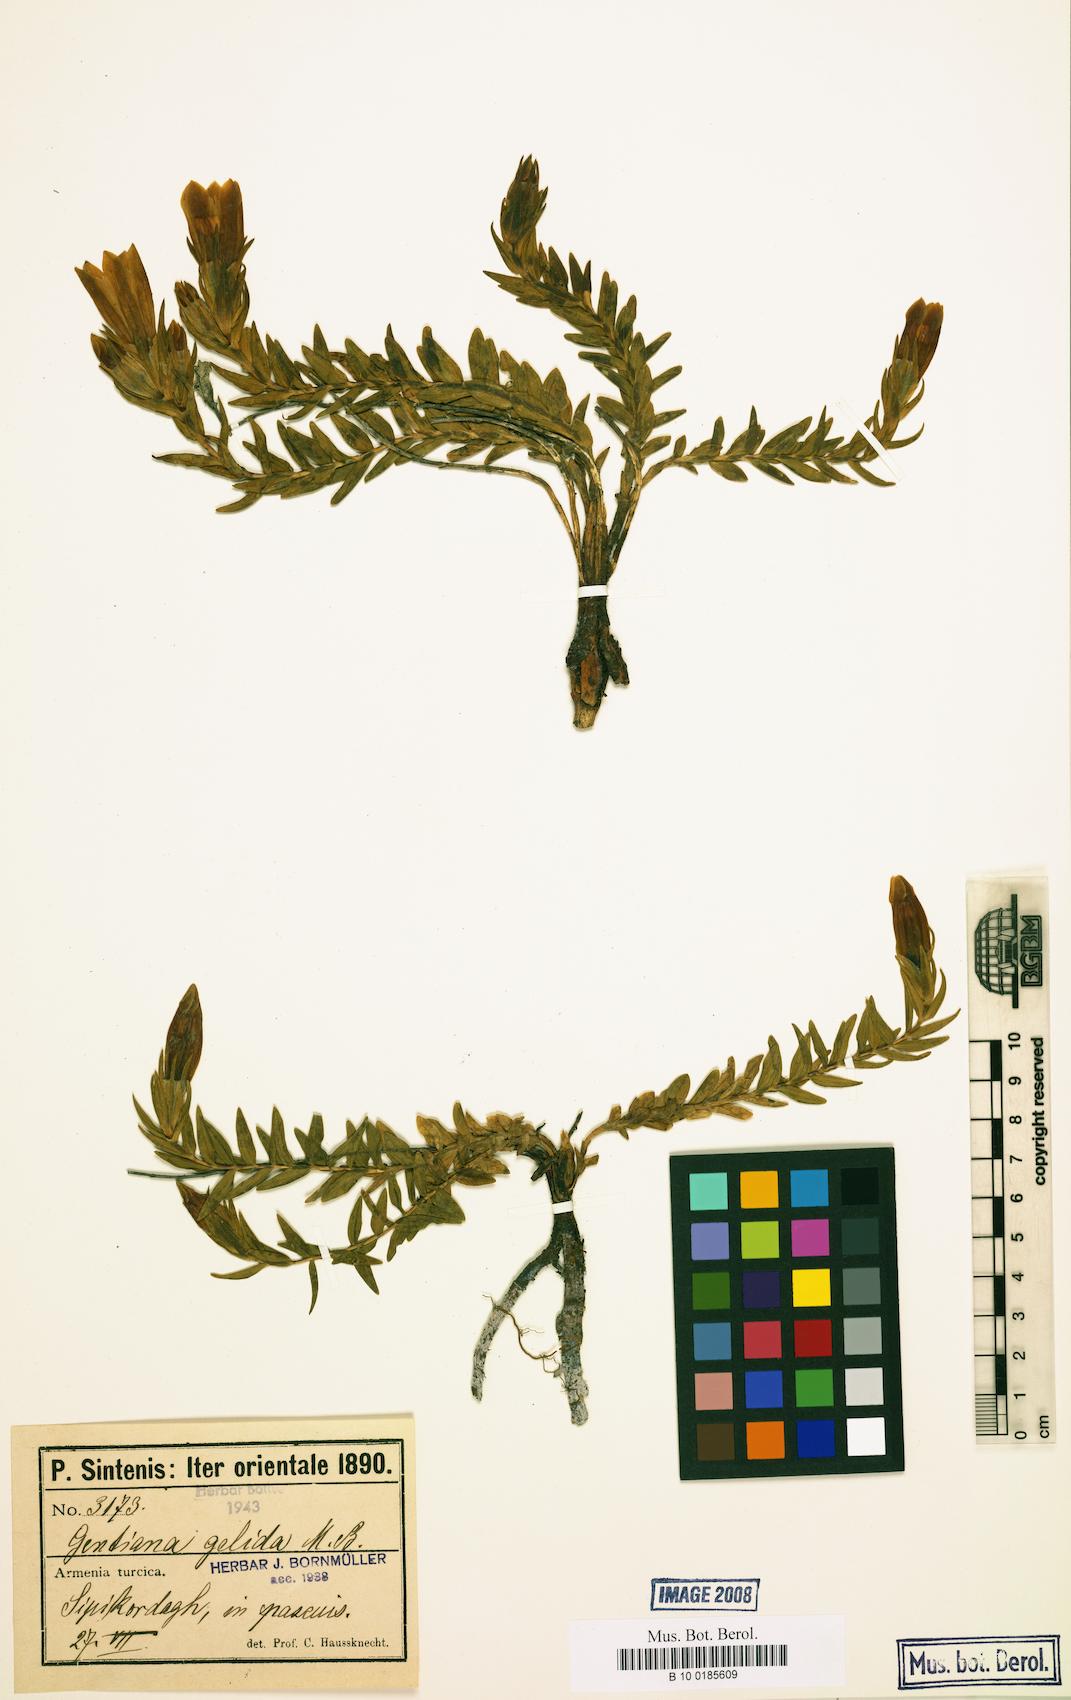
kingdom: Plantae
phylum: Tracheophyta
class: Magnoliopsida
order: Gentianales
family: Gentianaceae
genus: Gentiana
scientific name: Gentiana gelida
